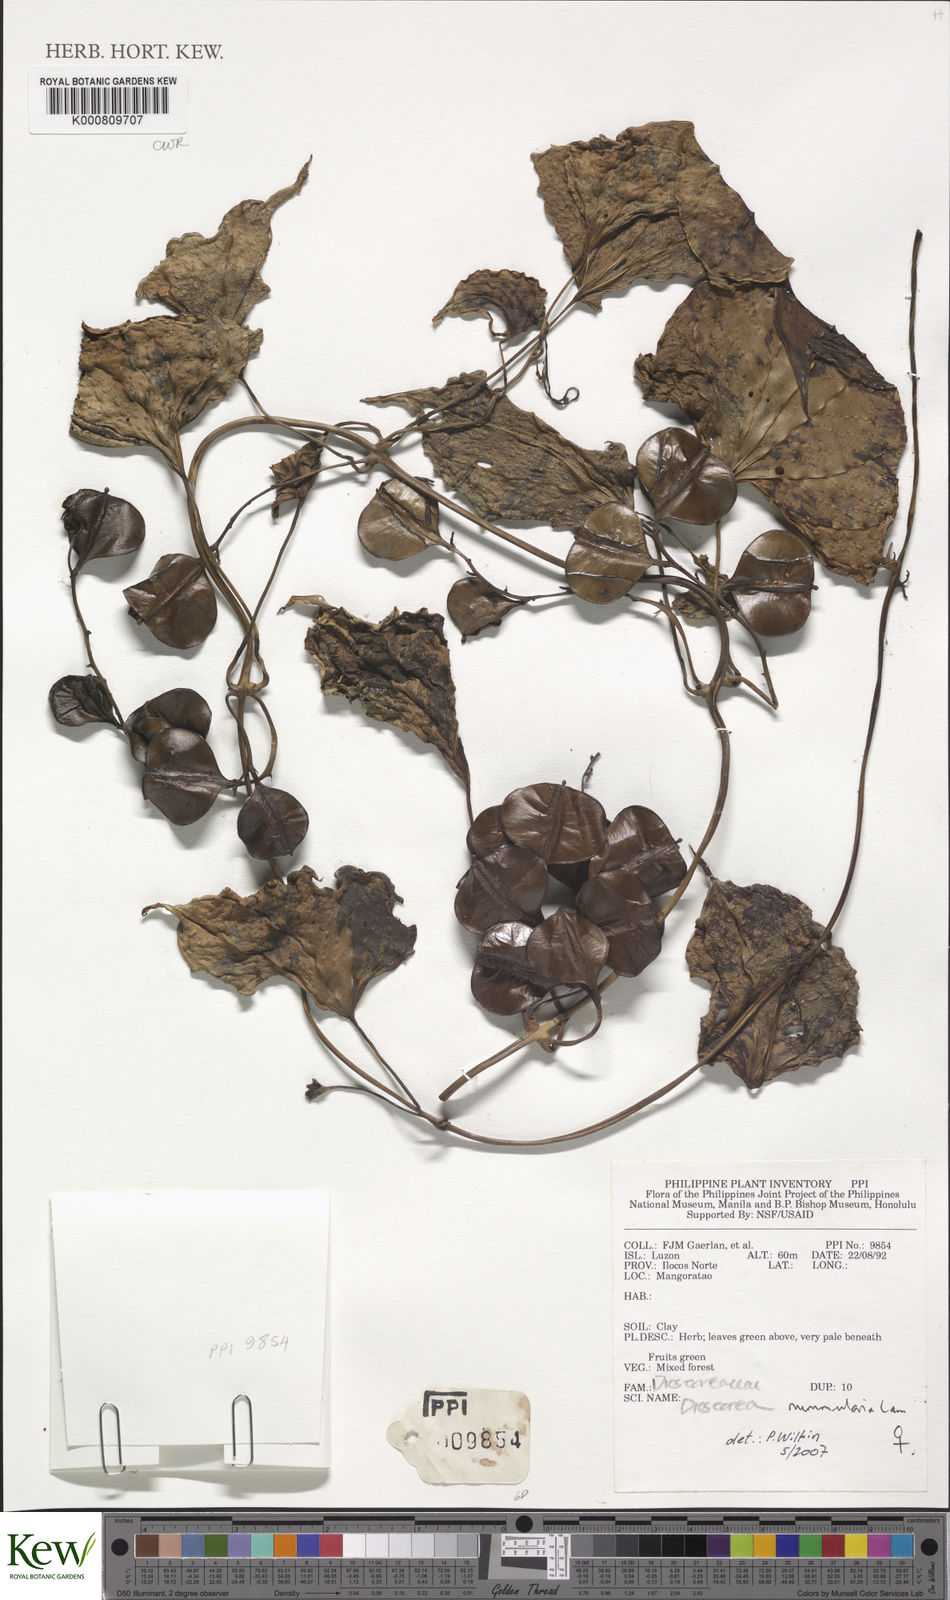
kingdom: Plantae
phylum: Tracheophyta
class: Liliopsida
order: Dioscoreales
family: Dioscoreaceae
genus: Dioscorea
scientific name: Dioscorea nummularia
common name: Pacific yam
